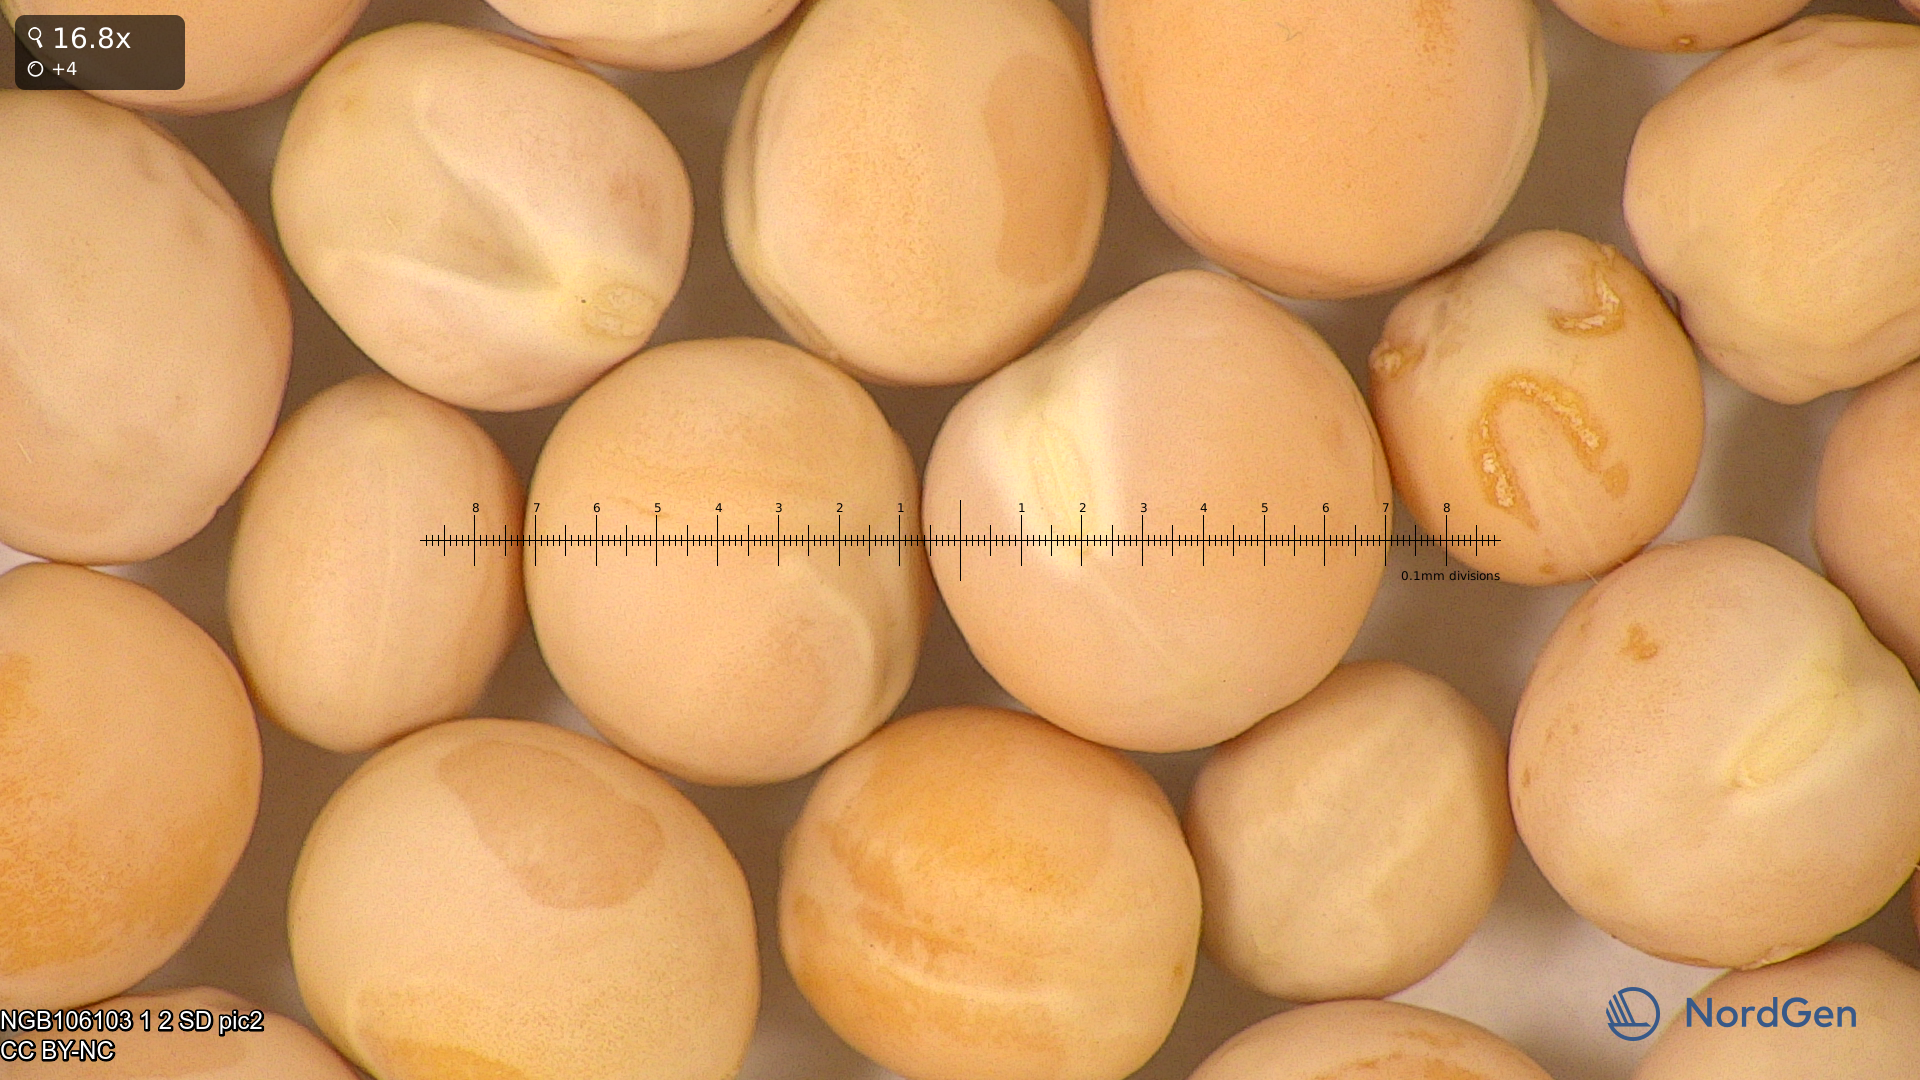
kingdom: Plantae
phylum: Tracheophyta
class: Magnoliopsida
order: Fabales
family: Fabaceae
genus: Lathyrus
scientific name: Lathyrus oleraceus
